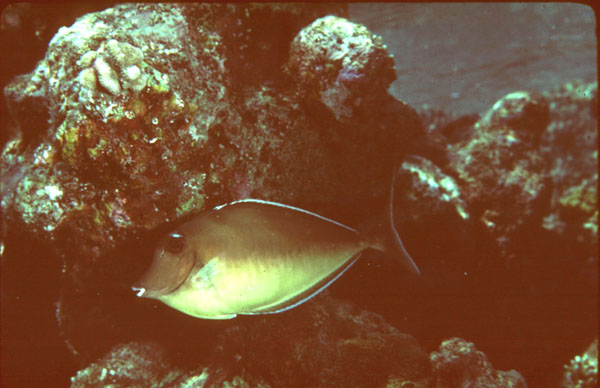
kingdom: Animalia
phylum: Chordata
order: Perciformes
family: Acanthuridae
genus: Naso
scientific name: Naso brachycentron
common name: Humpback unicornfish
